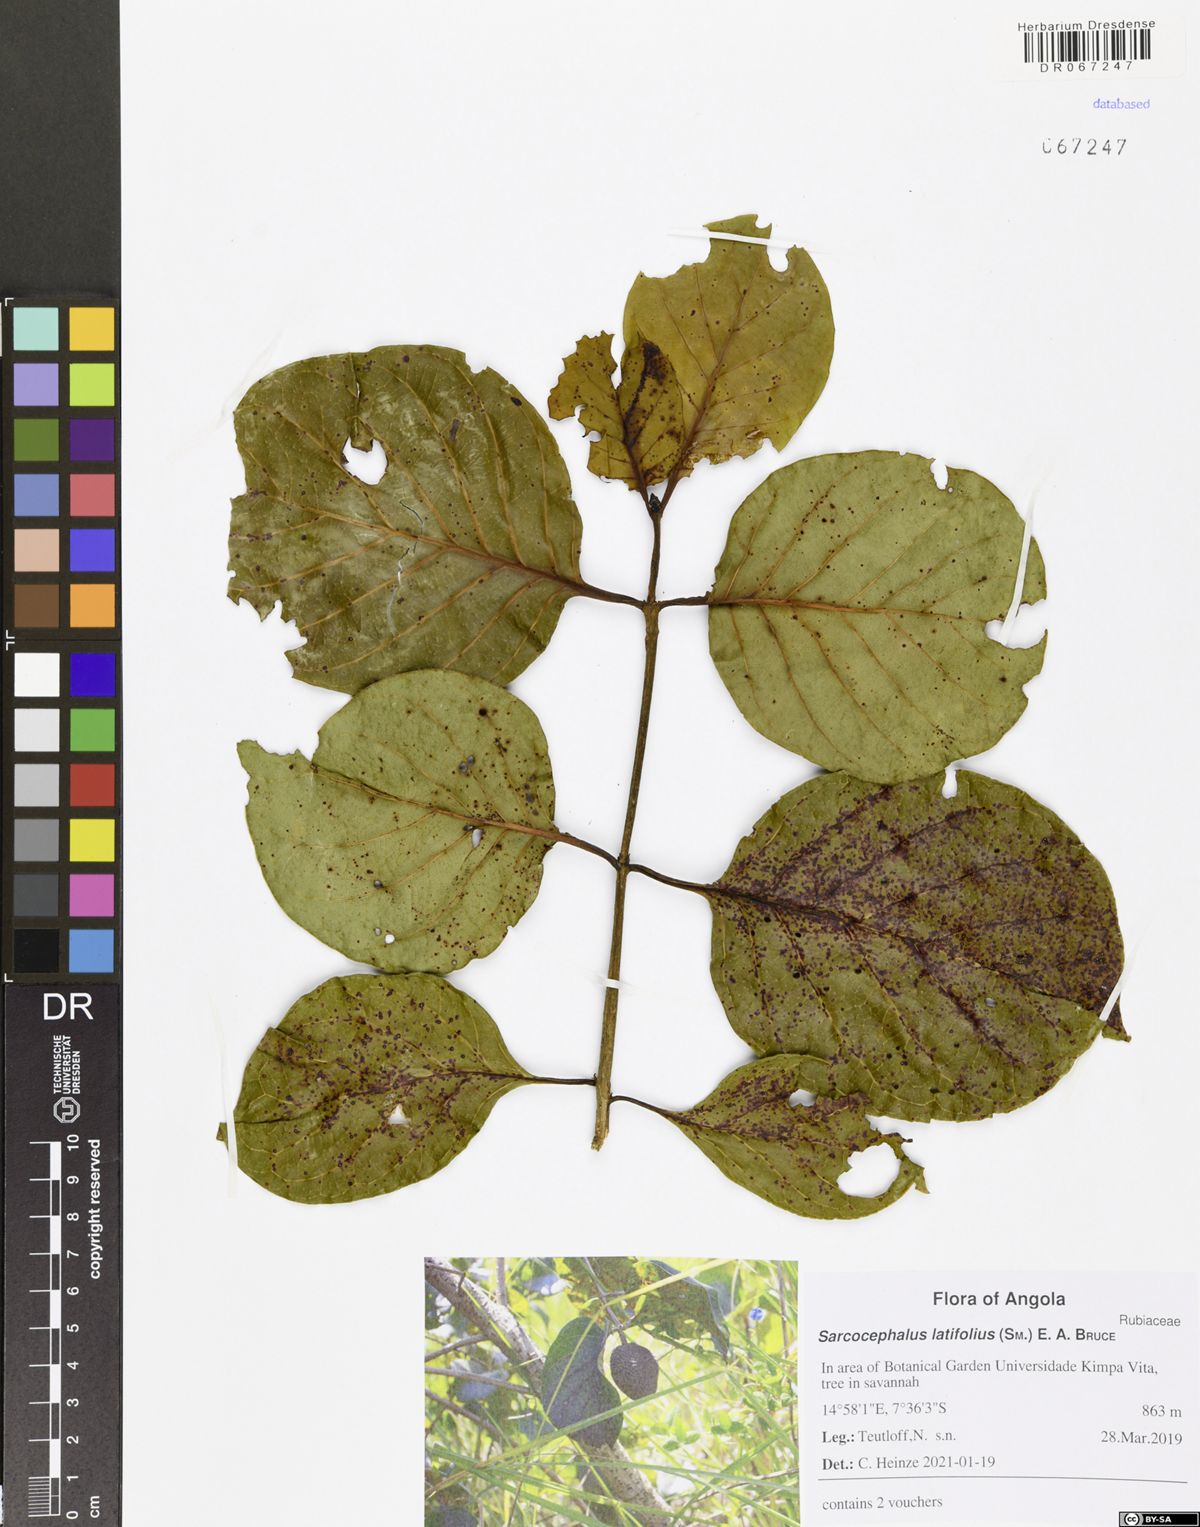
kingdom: Plantae
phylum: Tracheophyta
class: Magnoliopsida
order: Gentianales
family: Rubiaceae
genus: Nauclea
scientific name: Nauclea latifolia
